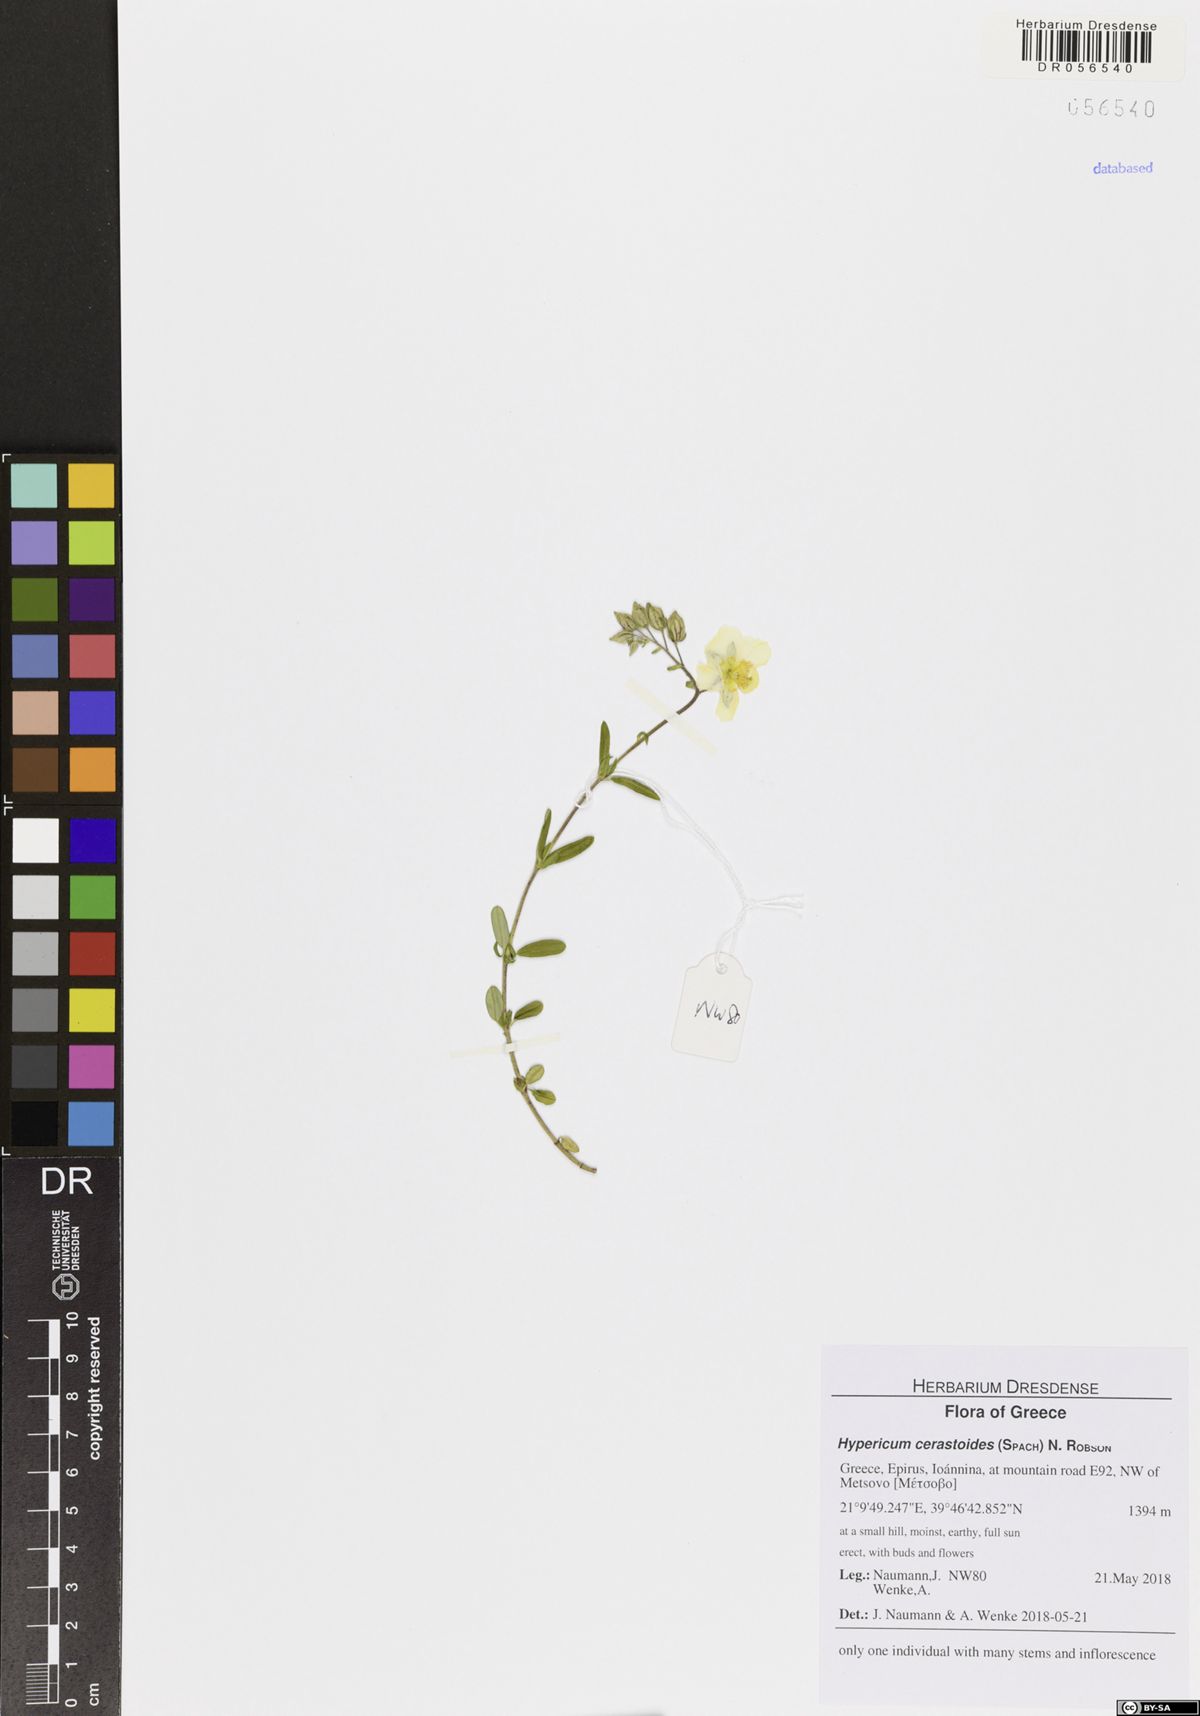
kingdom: Plantae
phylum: Tracheophyta
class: Magnoliopsida
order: Malpighiales
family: Hypericaceae
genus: Hypericum
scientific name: Hypericum cerastoides
